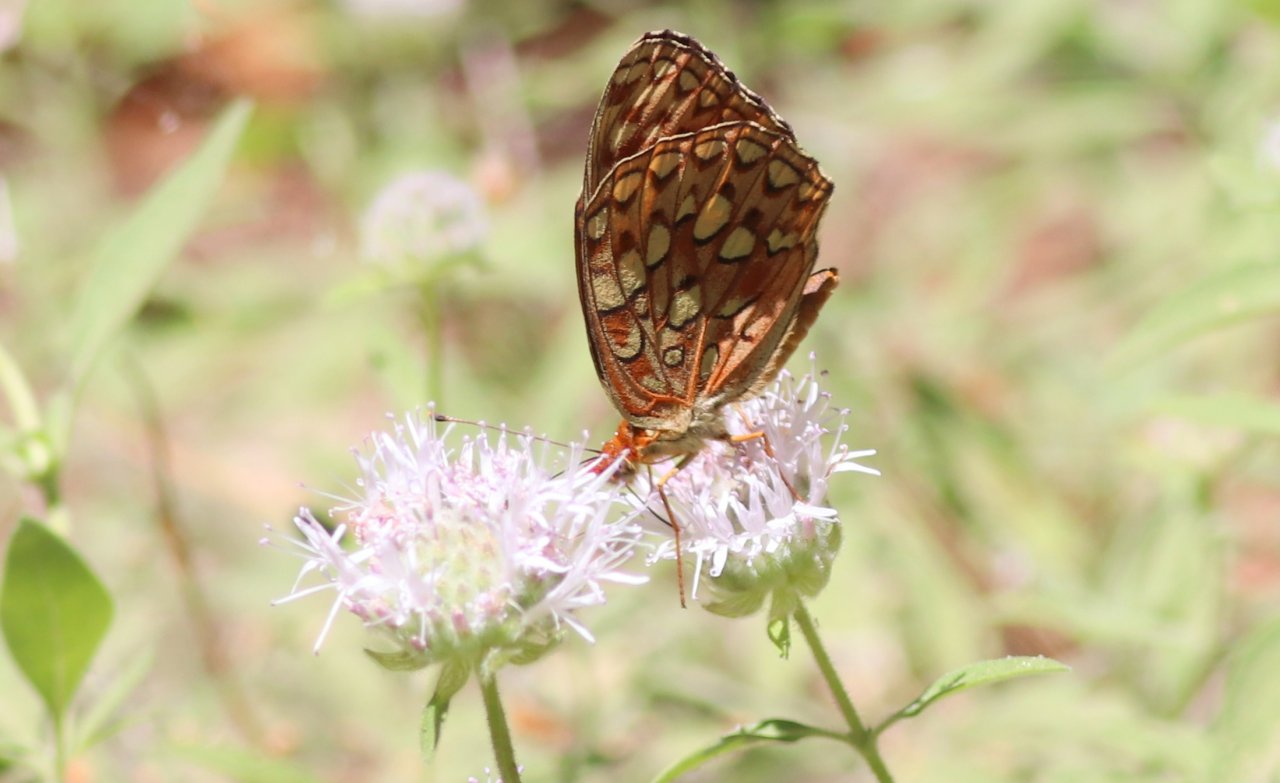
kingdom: Animalia
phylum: Arthropoda
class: Insecta
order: Lepidoptera
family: Nymphalidae
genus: Speyeria
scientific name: Speyeria hydaspe
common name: Hydaspe Fritillary
